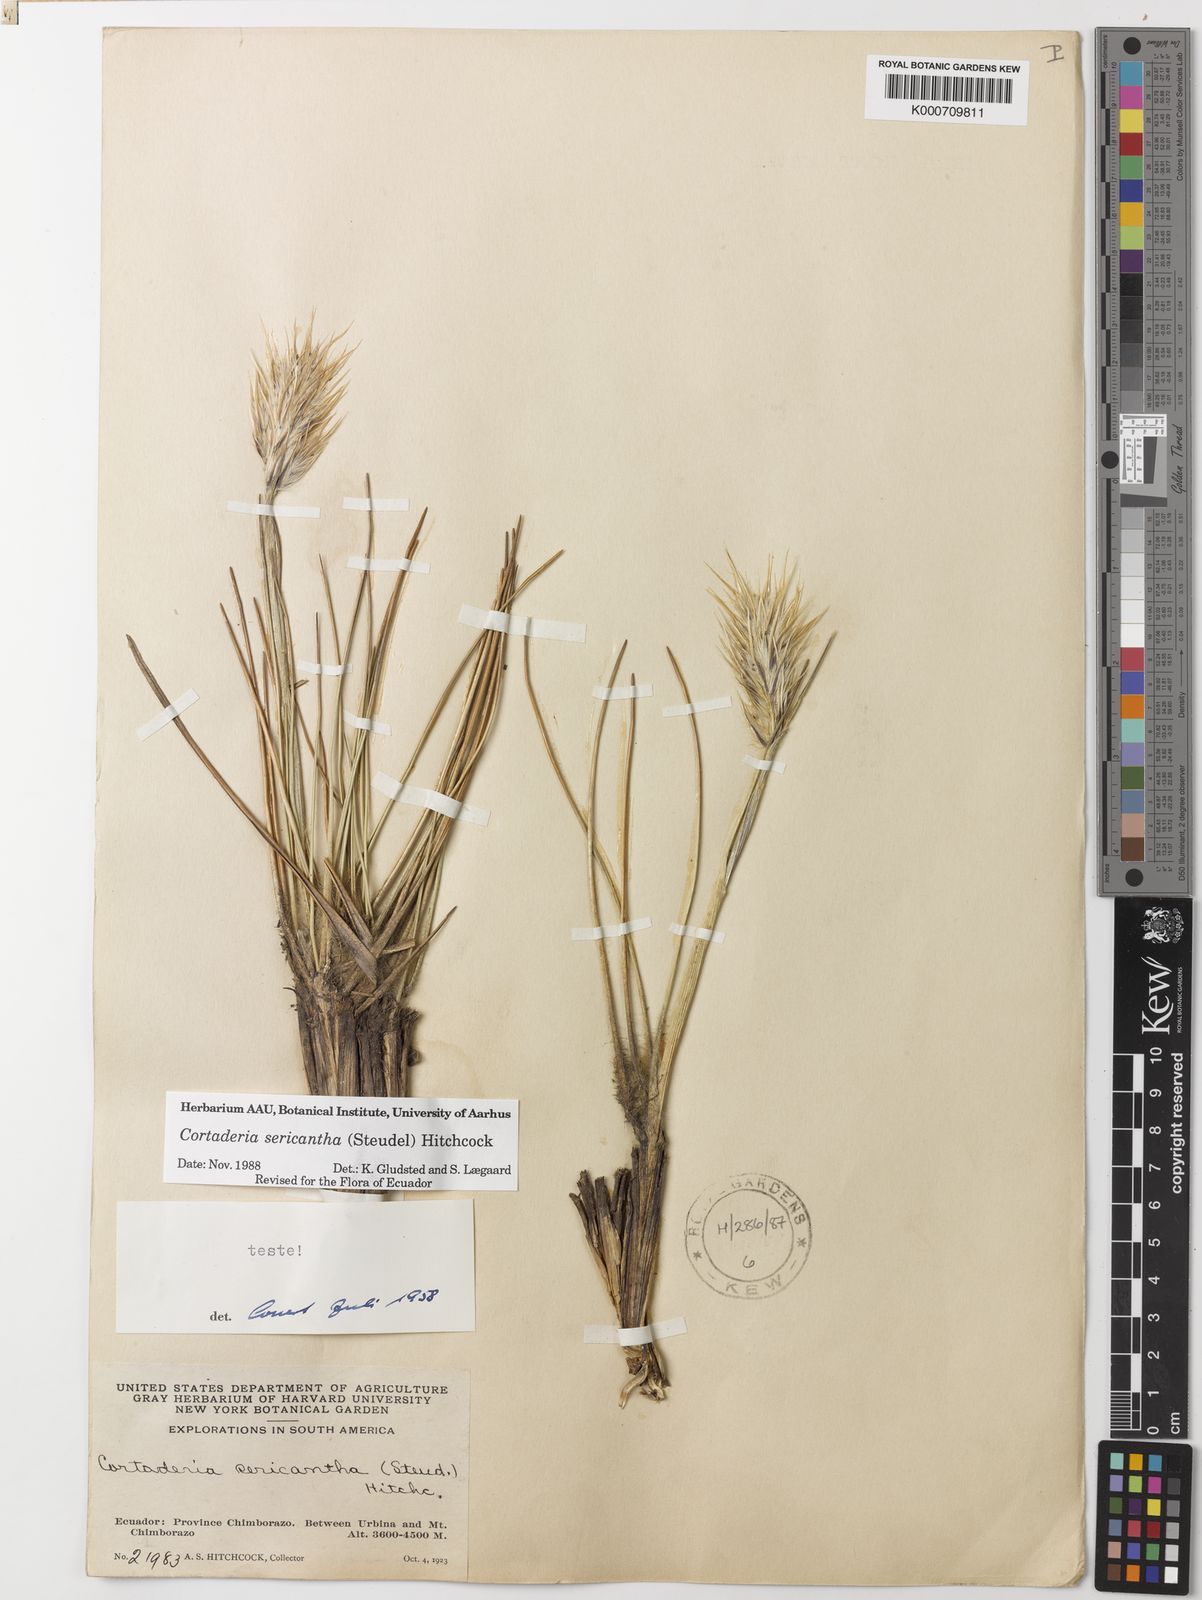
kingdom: Plantae
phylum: Tracheophyta
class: Liliopsida
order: Poales
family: Poaceae
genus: Cortaderia
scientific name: Cortaderia sericantha
